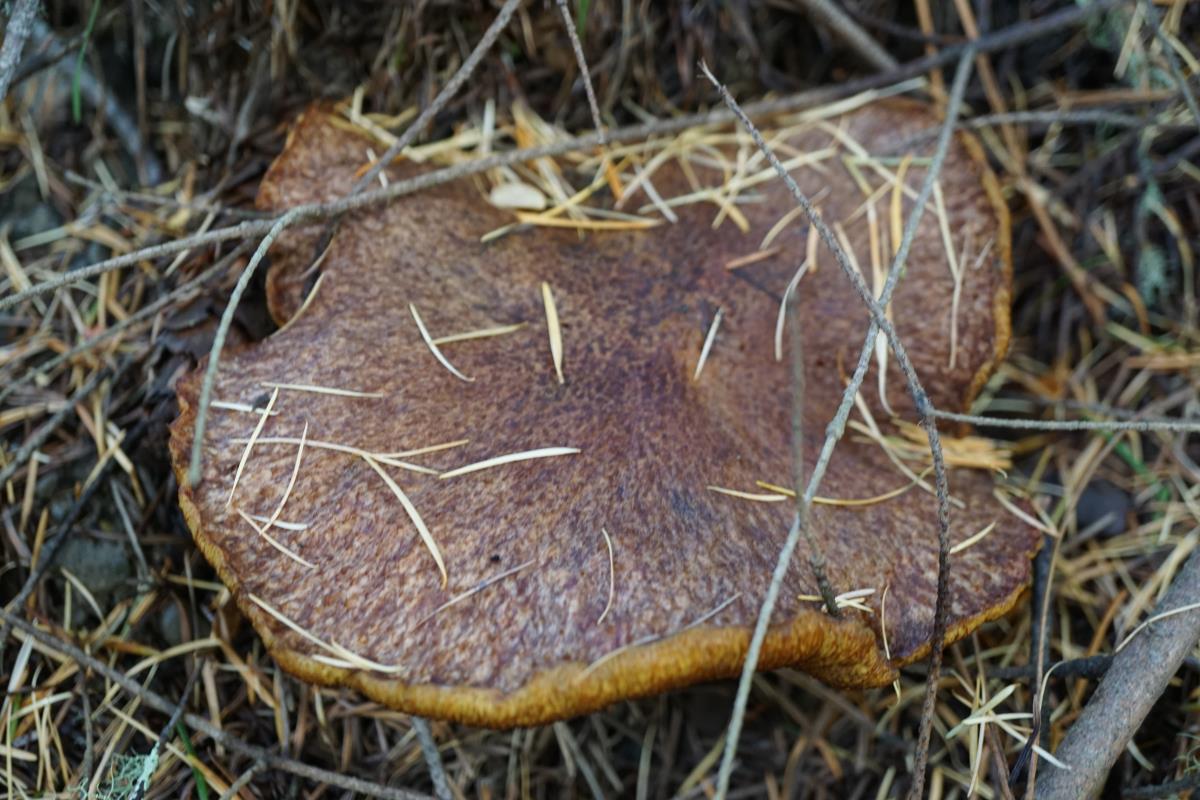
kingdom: Fungi
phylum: Basidiomycota
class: Agaricomycetes
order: Boletales
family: Suillaceae
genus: Suillus
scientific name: Suillus lakei
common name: Western painted suillus
